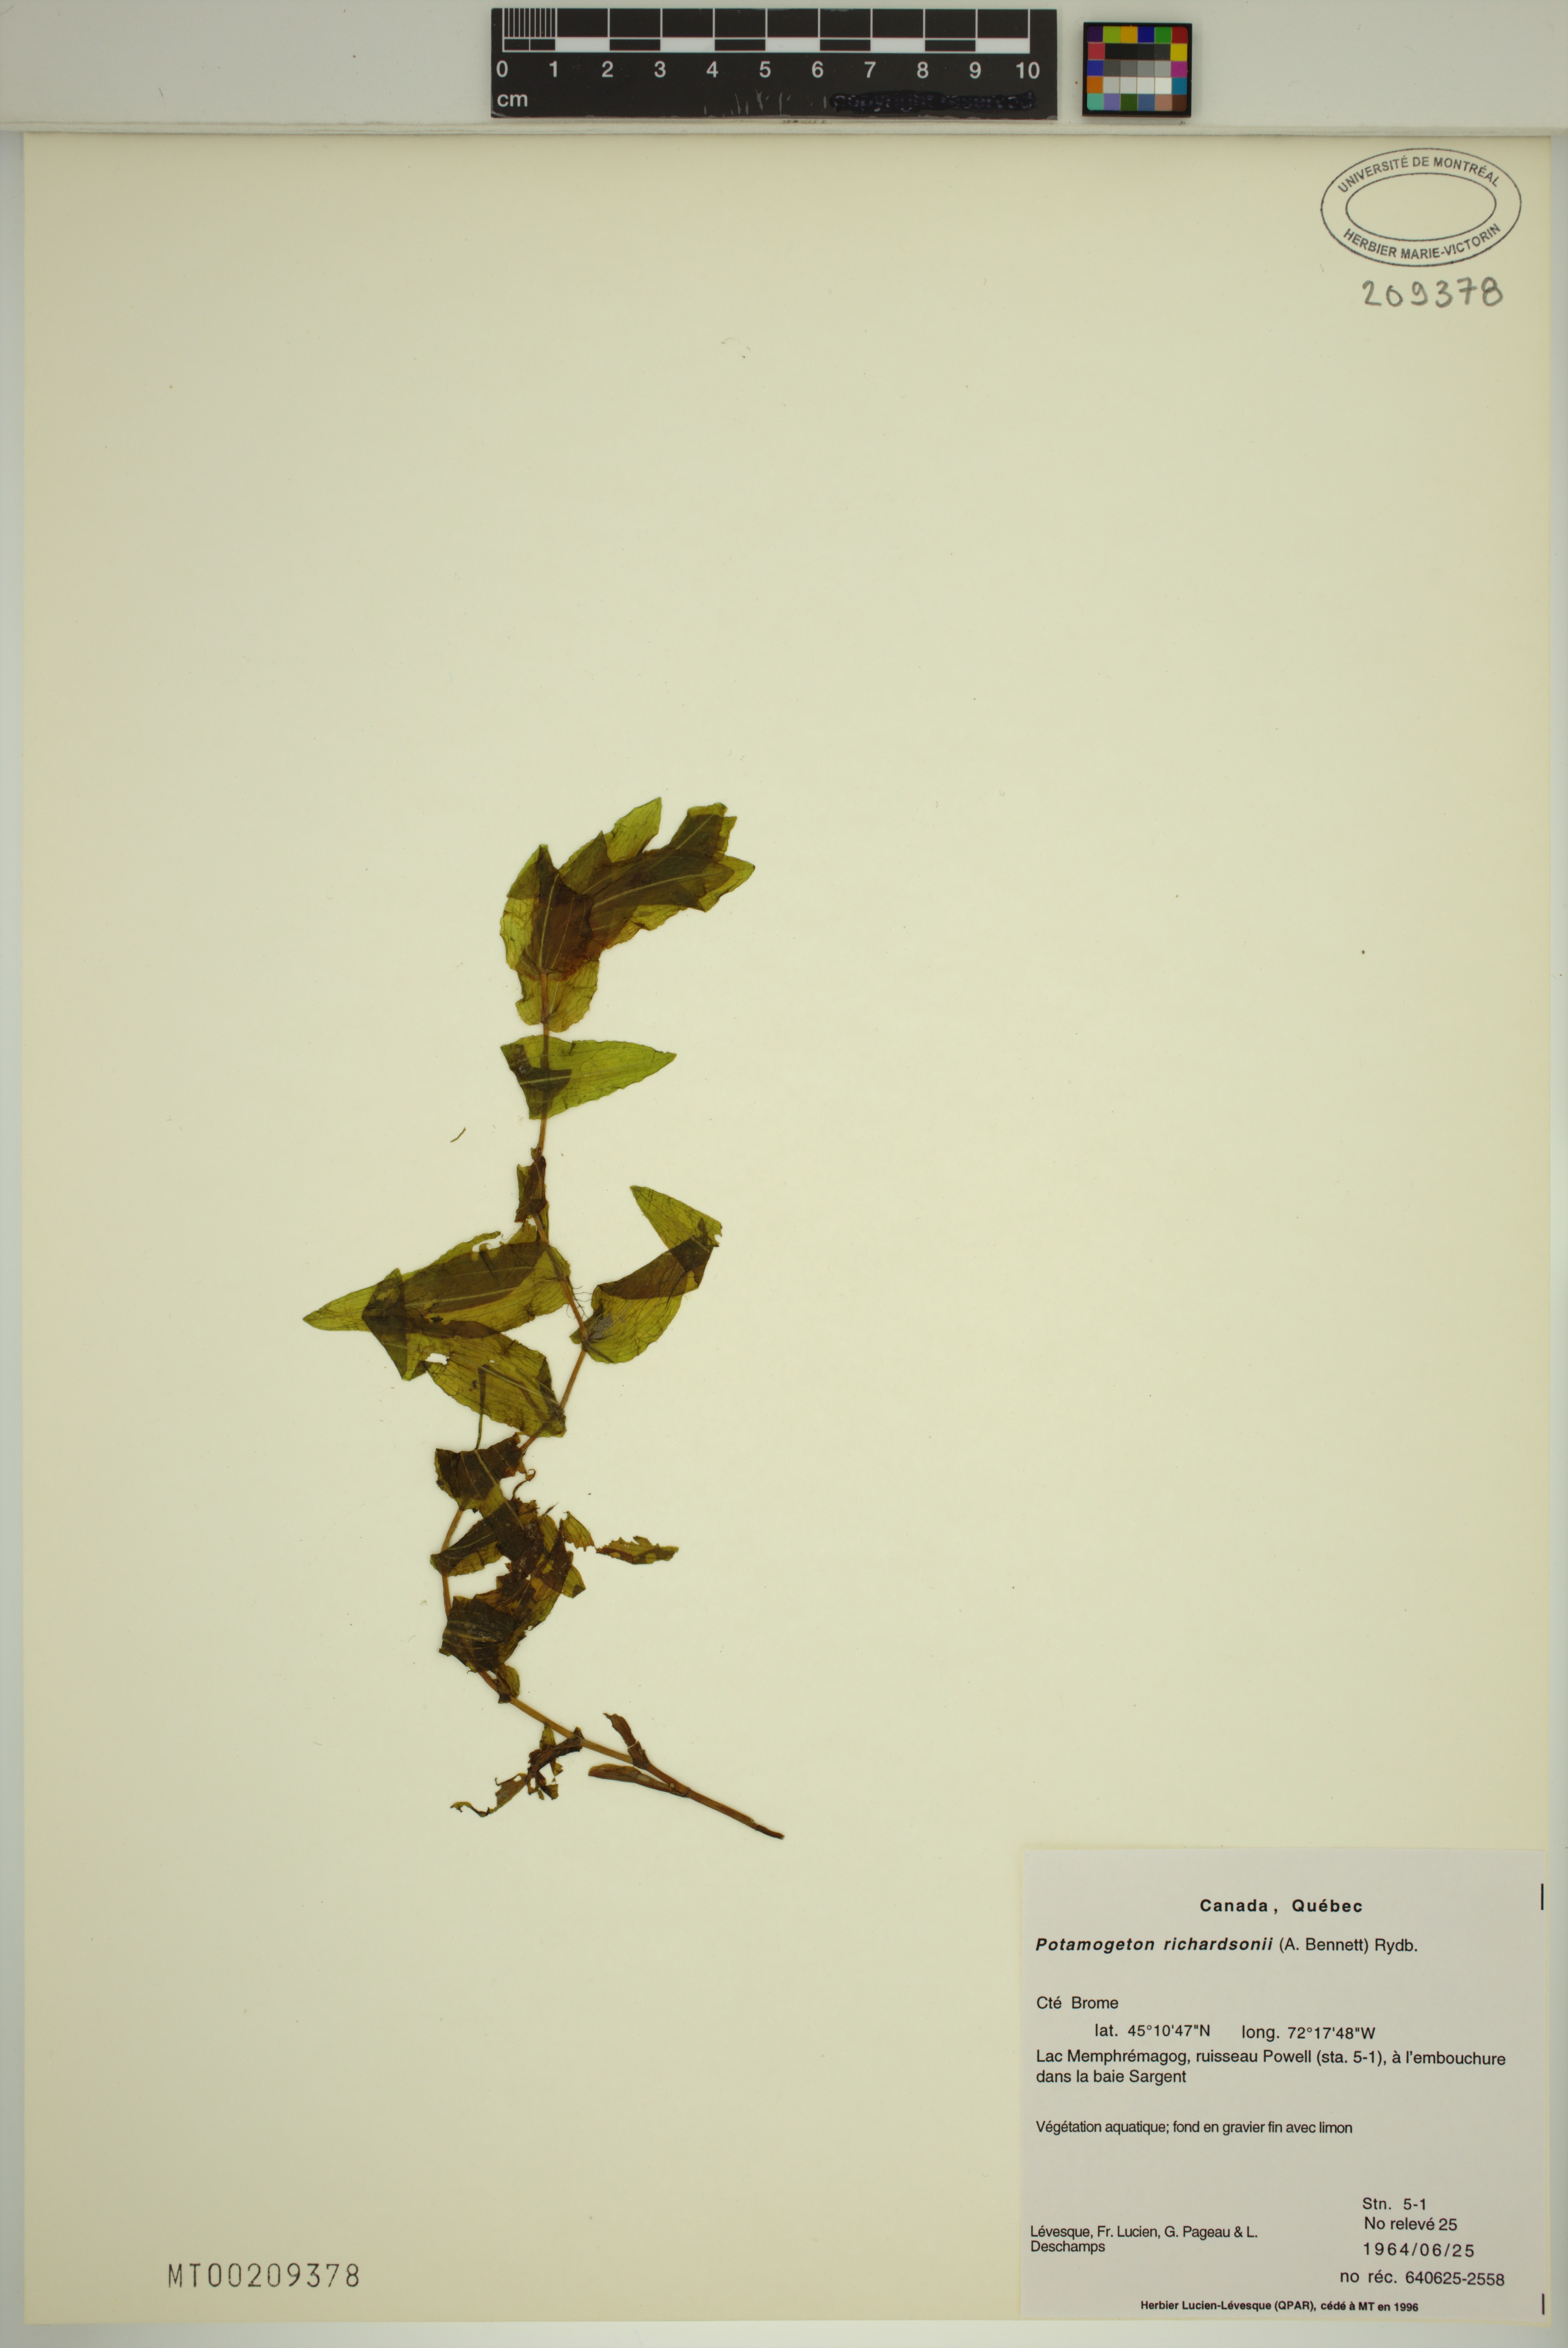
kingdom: Plantae
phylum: Tracheophyta
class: Liliopsida
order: Alismatales
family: Potamogetonaceae
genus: Potamogeton
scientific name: Potamogeton richardsonii
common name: Richardson's pondweed
